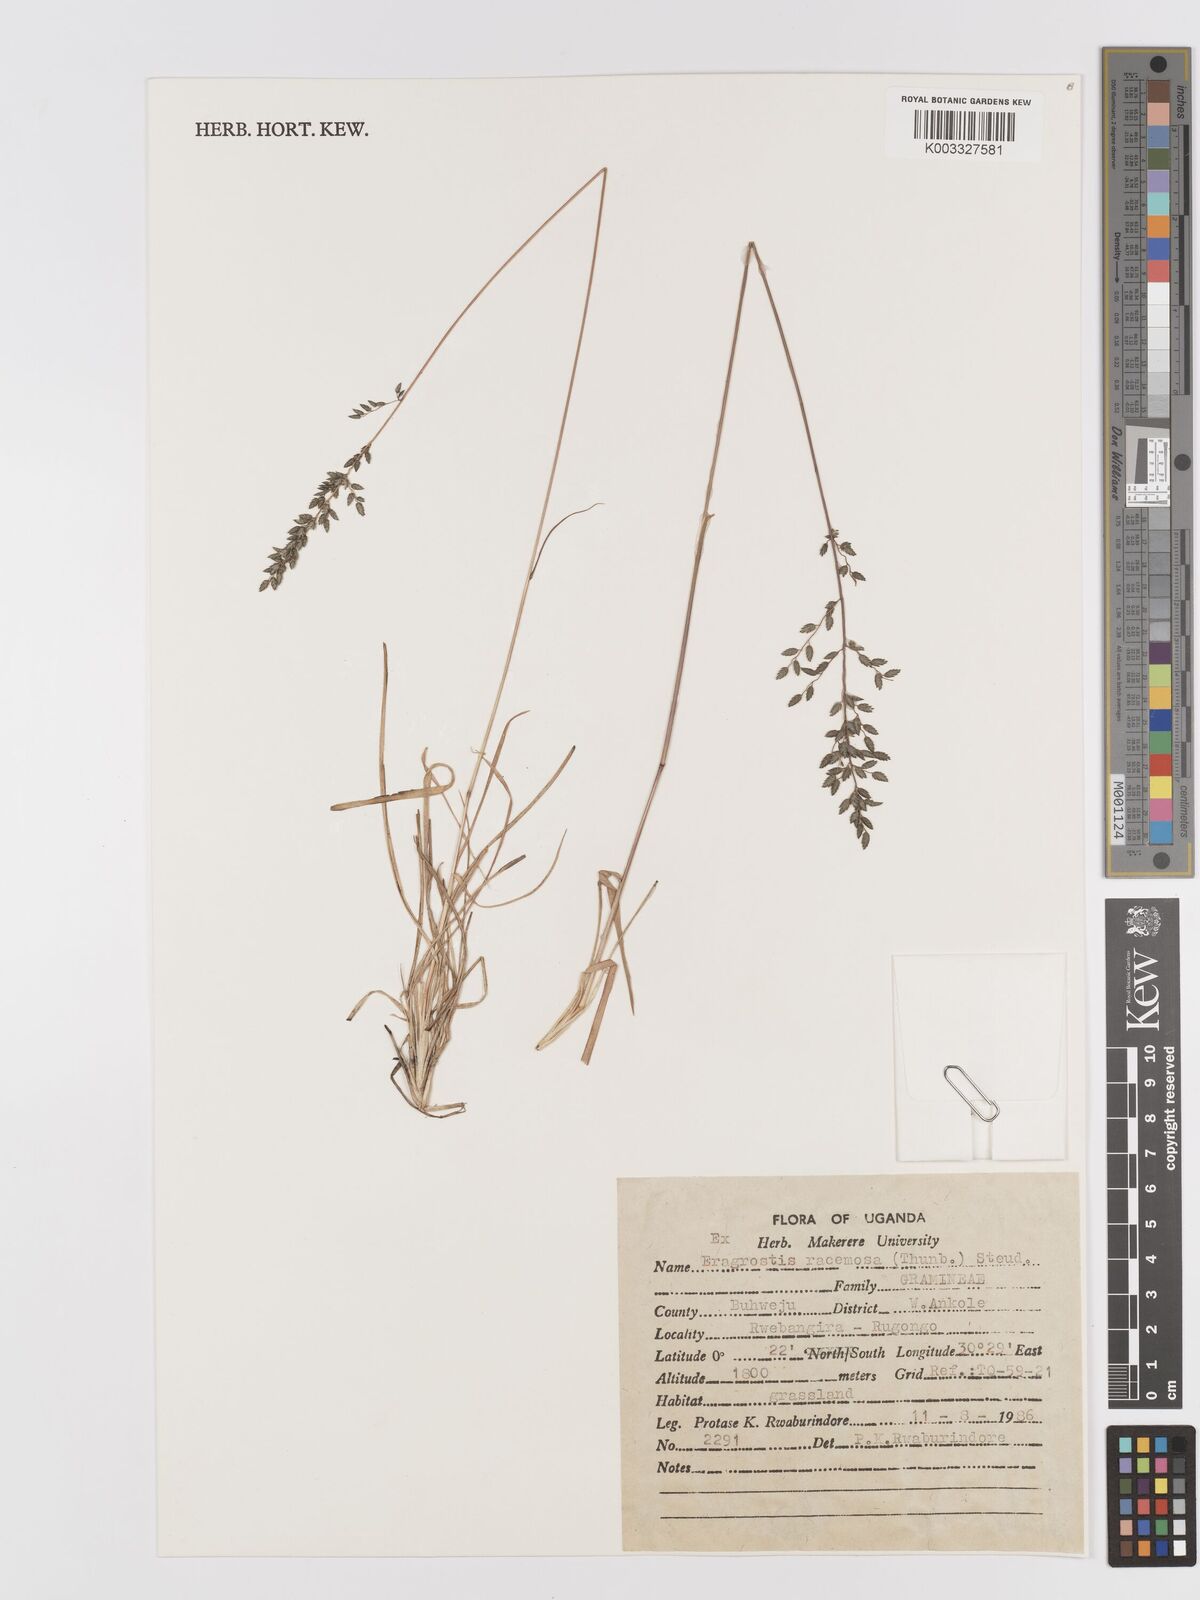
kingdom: Plantae
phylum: Tracheophyta
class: Liliopsida
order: Poales
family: Poaceae
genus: Eragrostis
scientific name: Eragrostis racemosa
